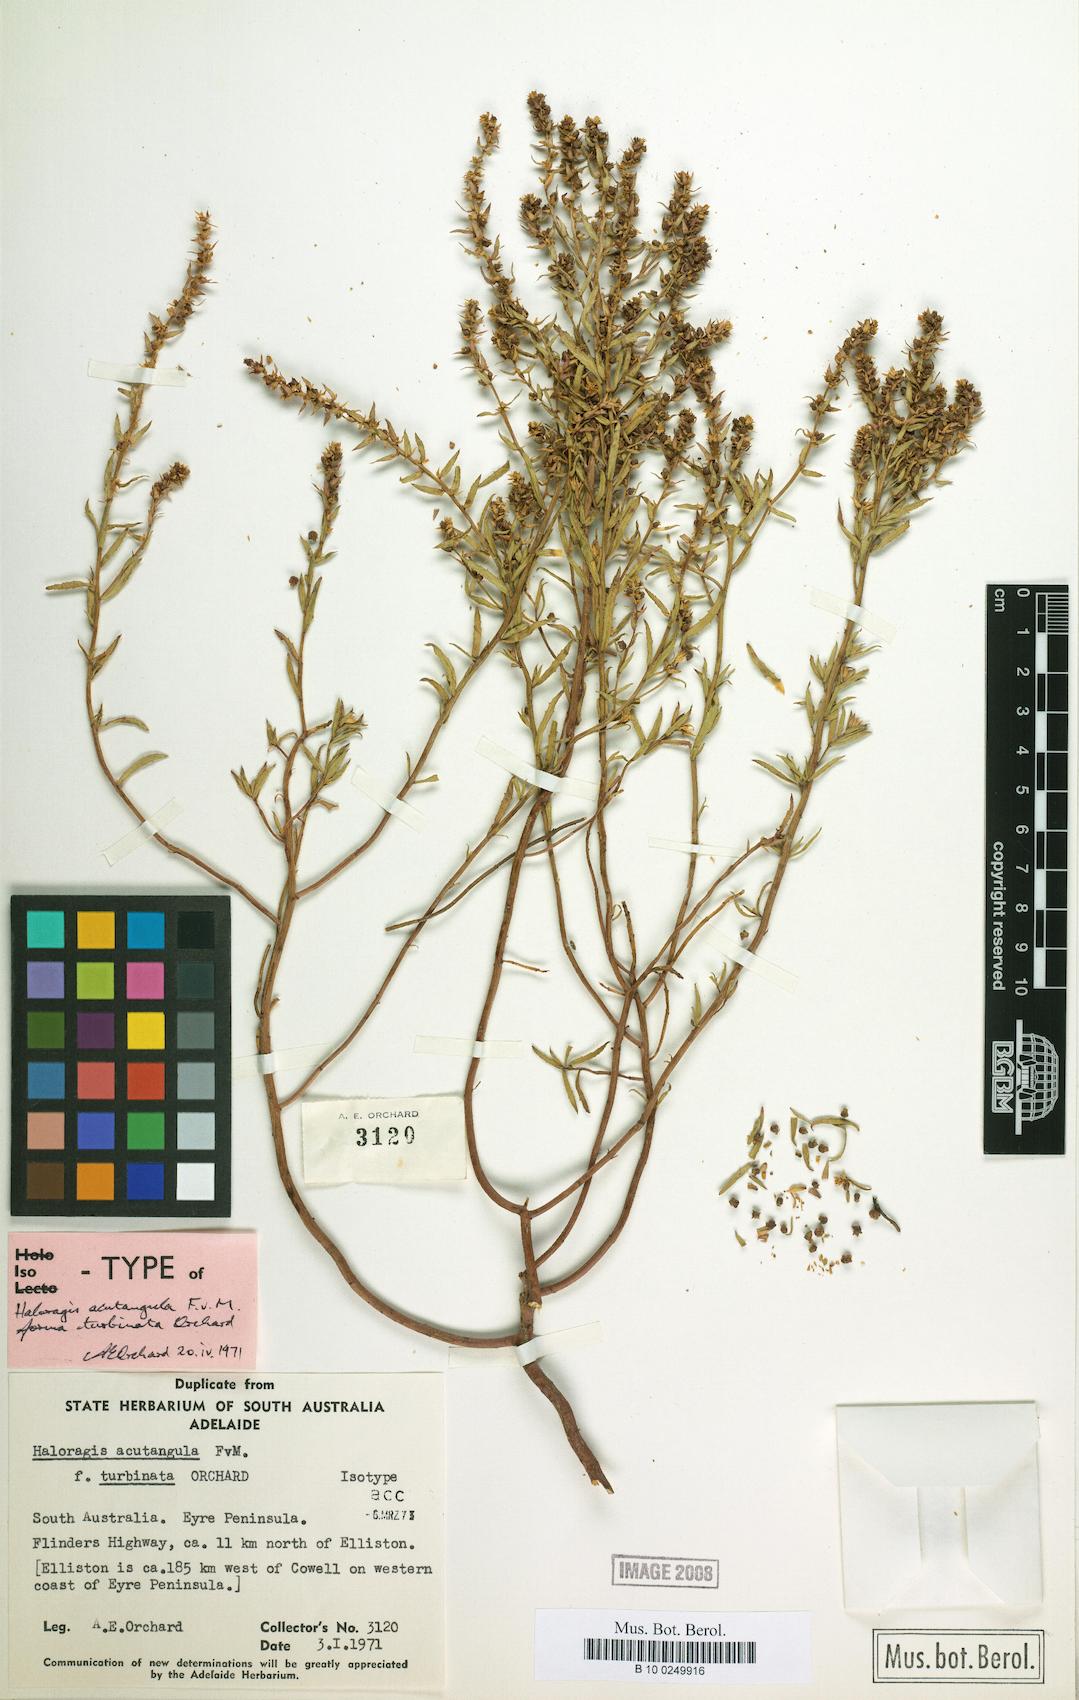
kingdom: Plantae
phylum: Tracheophyta
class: Magnoliopsida
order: Saxifragales
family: Haloragaceae
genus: Haloragis
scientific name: Haloragis acutangula
